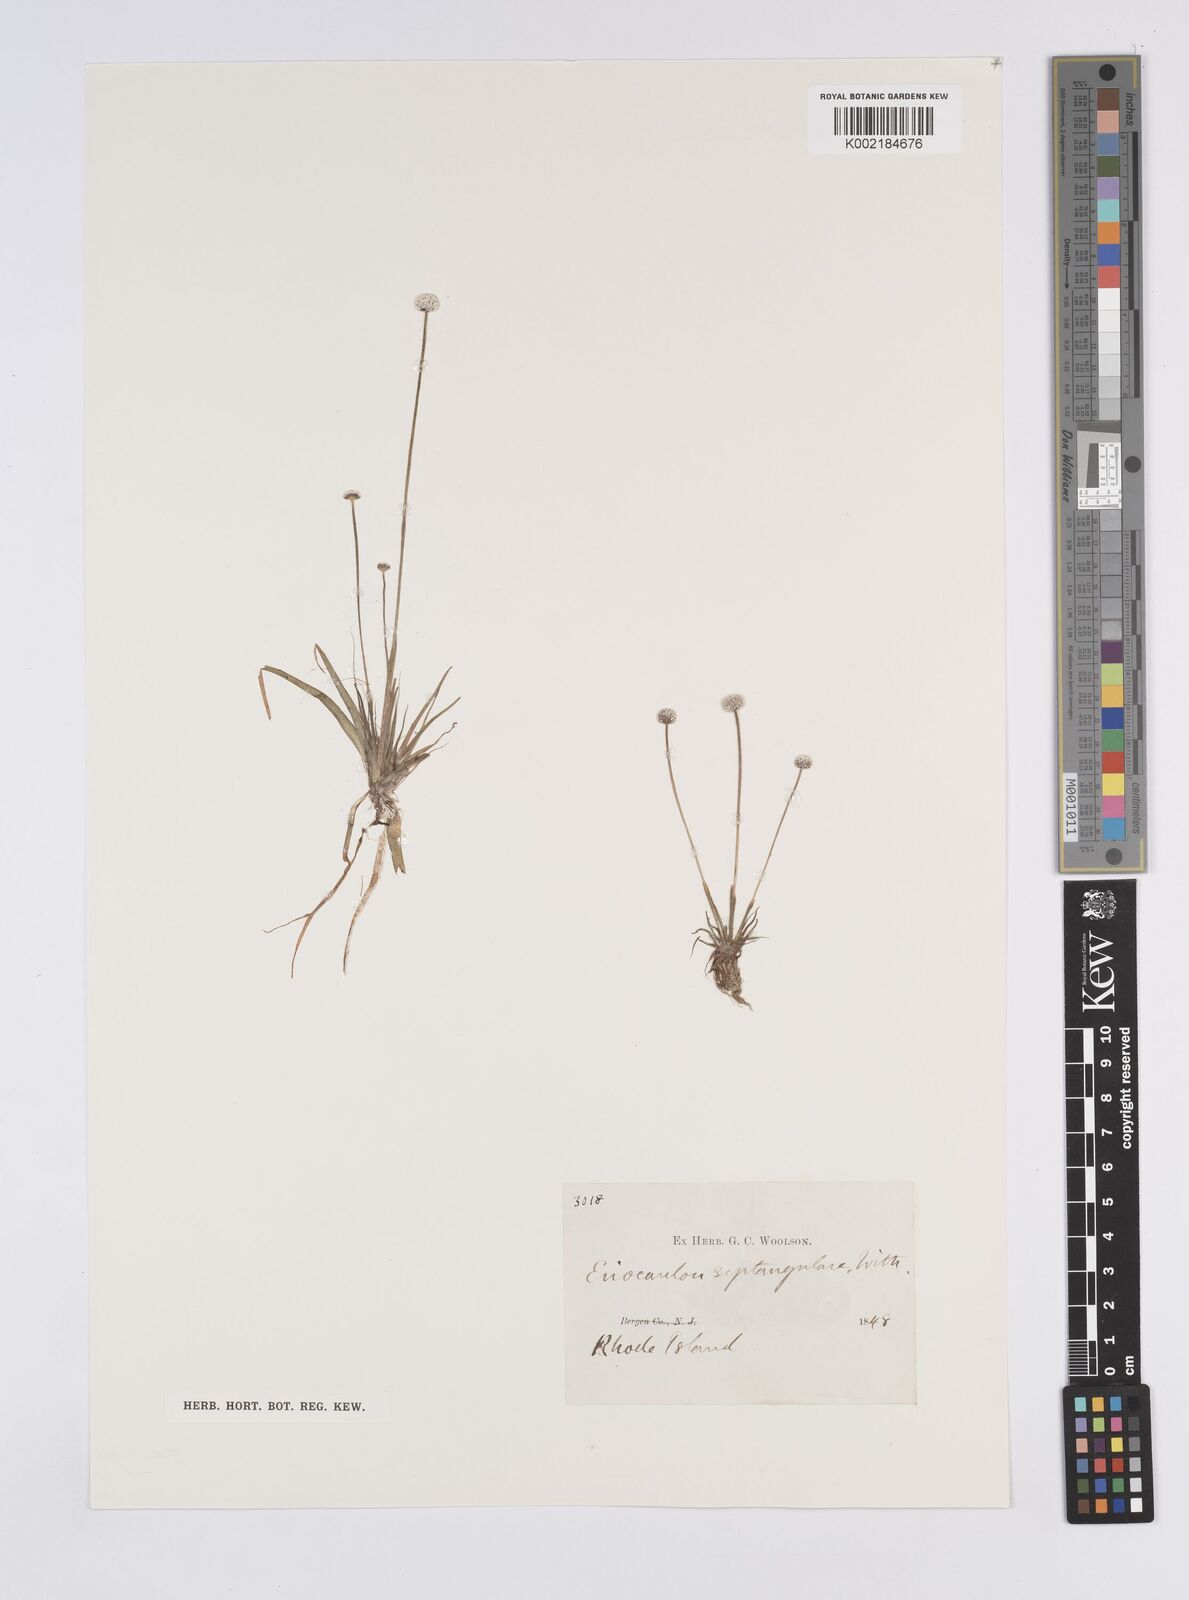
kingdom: Plantae
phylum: Tracheophyta
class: Liliopsida
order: Poales
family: Eriocaulaceae
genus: Eriocaulon
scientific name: Eriocaulon aquaticum
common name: Pipewort
